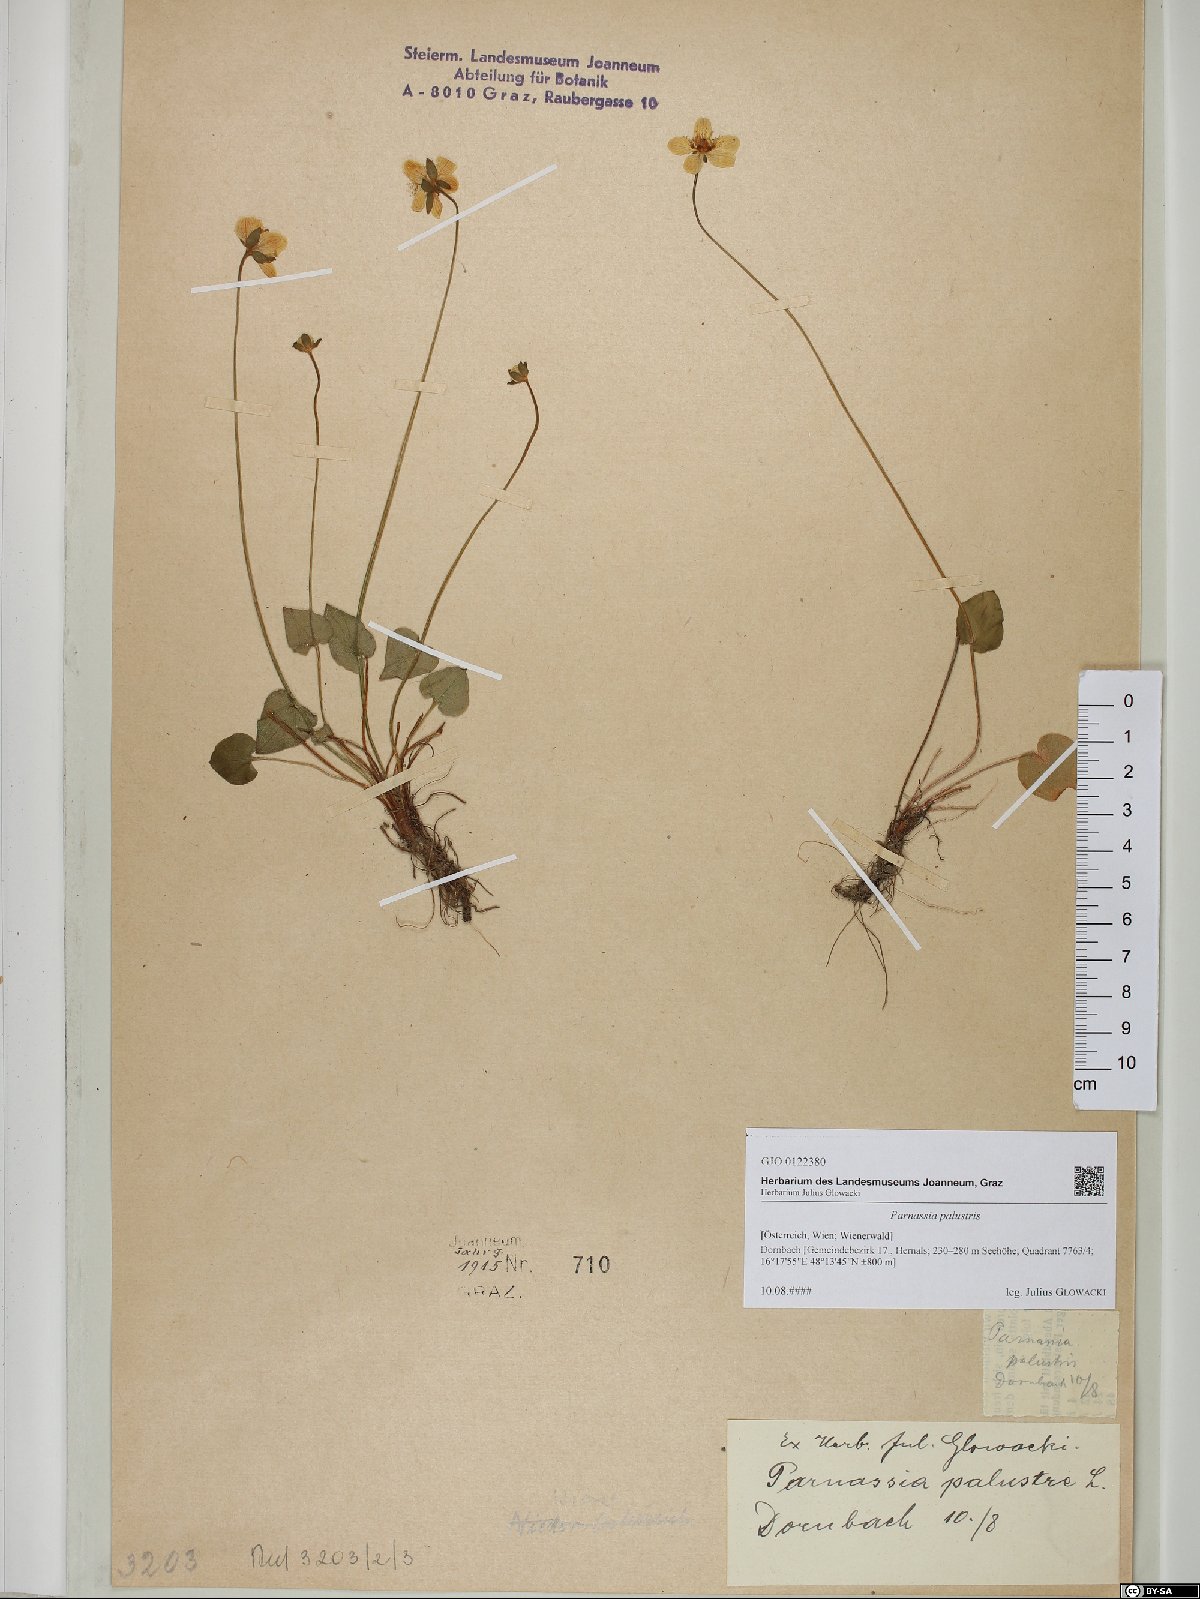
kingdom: Plantae
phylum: Tracheophyta
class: Magnoliopsida
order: Celastrales
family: Parnassiaceae
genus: Parnassia
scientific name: Parnassia palustris
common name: Grass-of-parnassus
